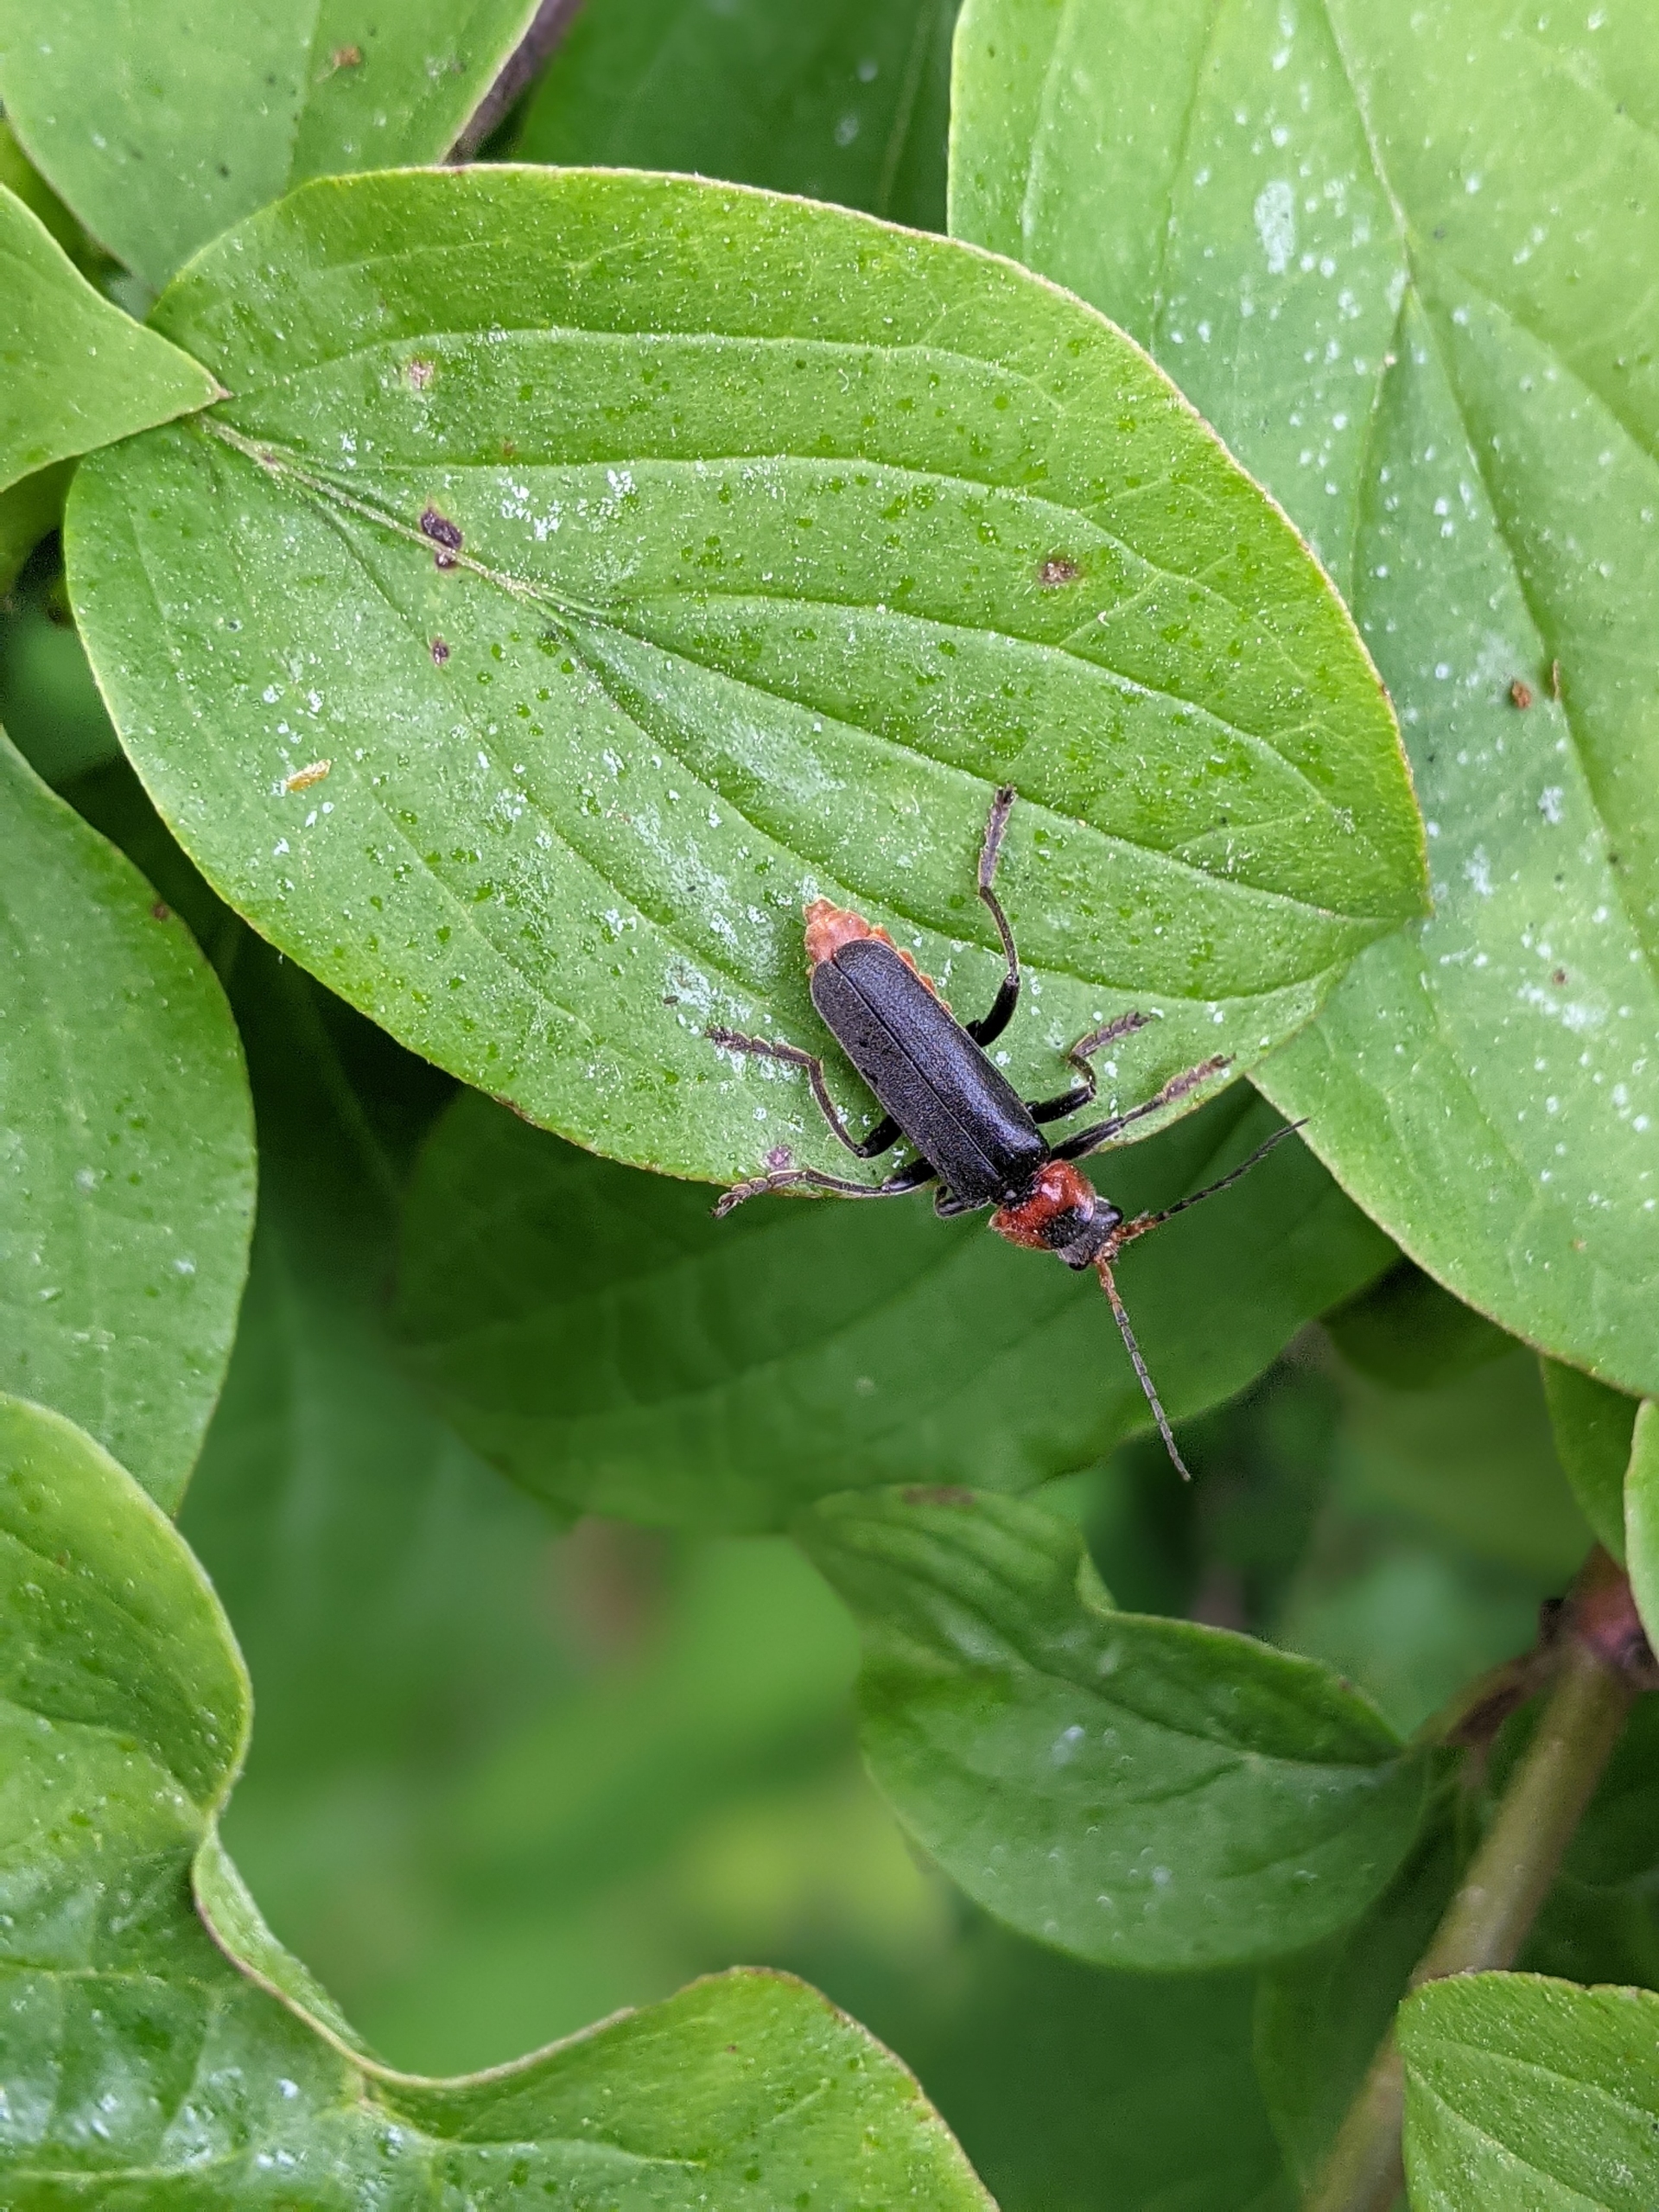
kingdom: Animalia
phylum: Arthropoda
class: Insecta
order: Coleoptera
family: Cantharidae
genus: Cantharis
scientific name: Cantharis fusca
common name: Stor blødvinge
